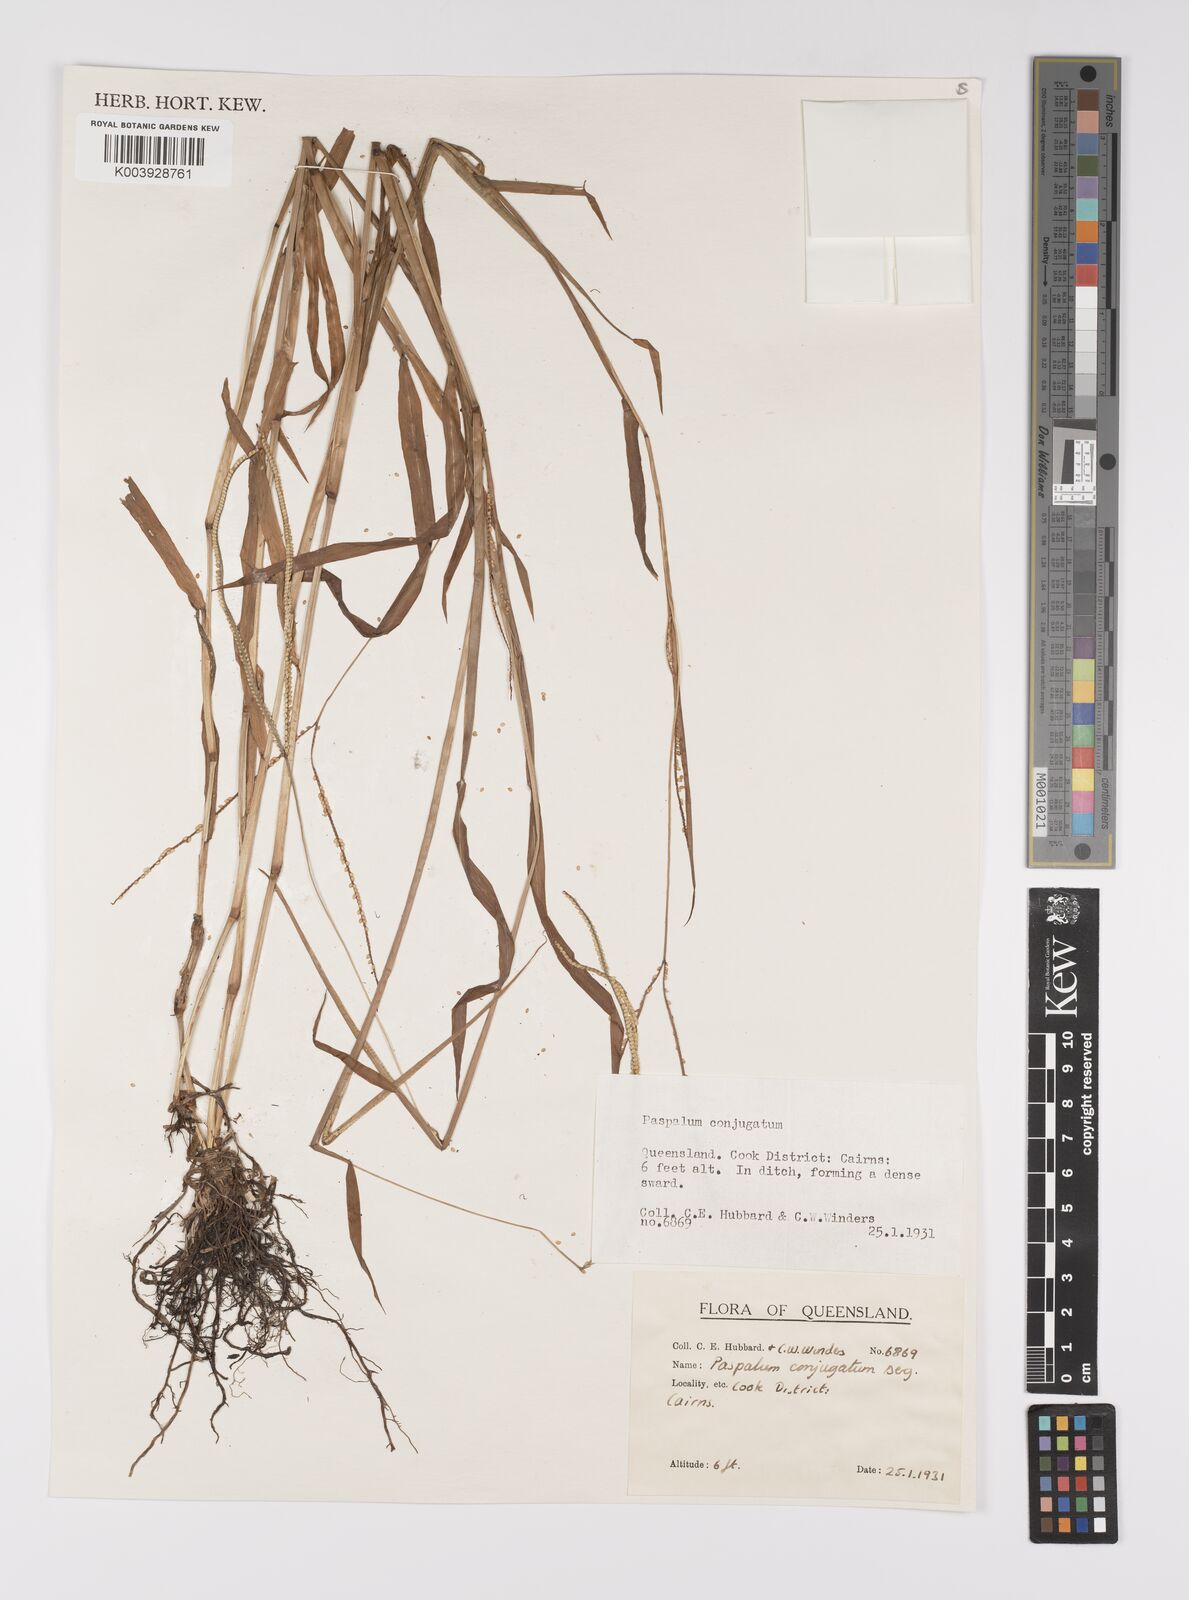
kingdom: Plantae
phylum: Tracheophyta
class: Liliopsida
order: Poales
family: Poaceae
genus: Paspalum
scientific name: Paspalum conjugatum
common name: Hilograss
